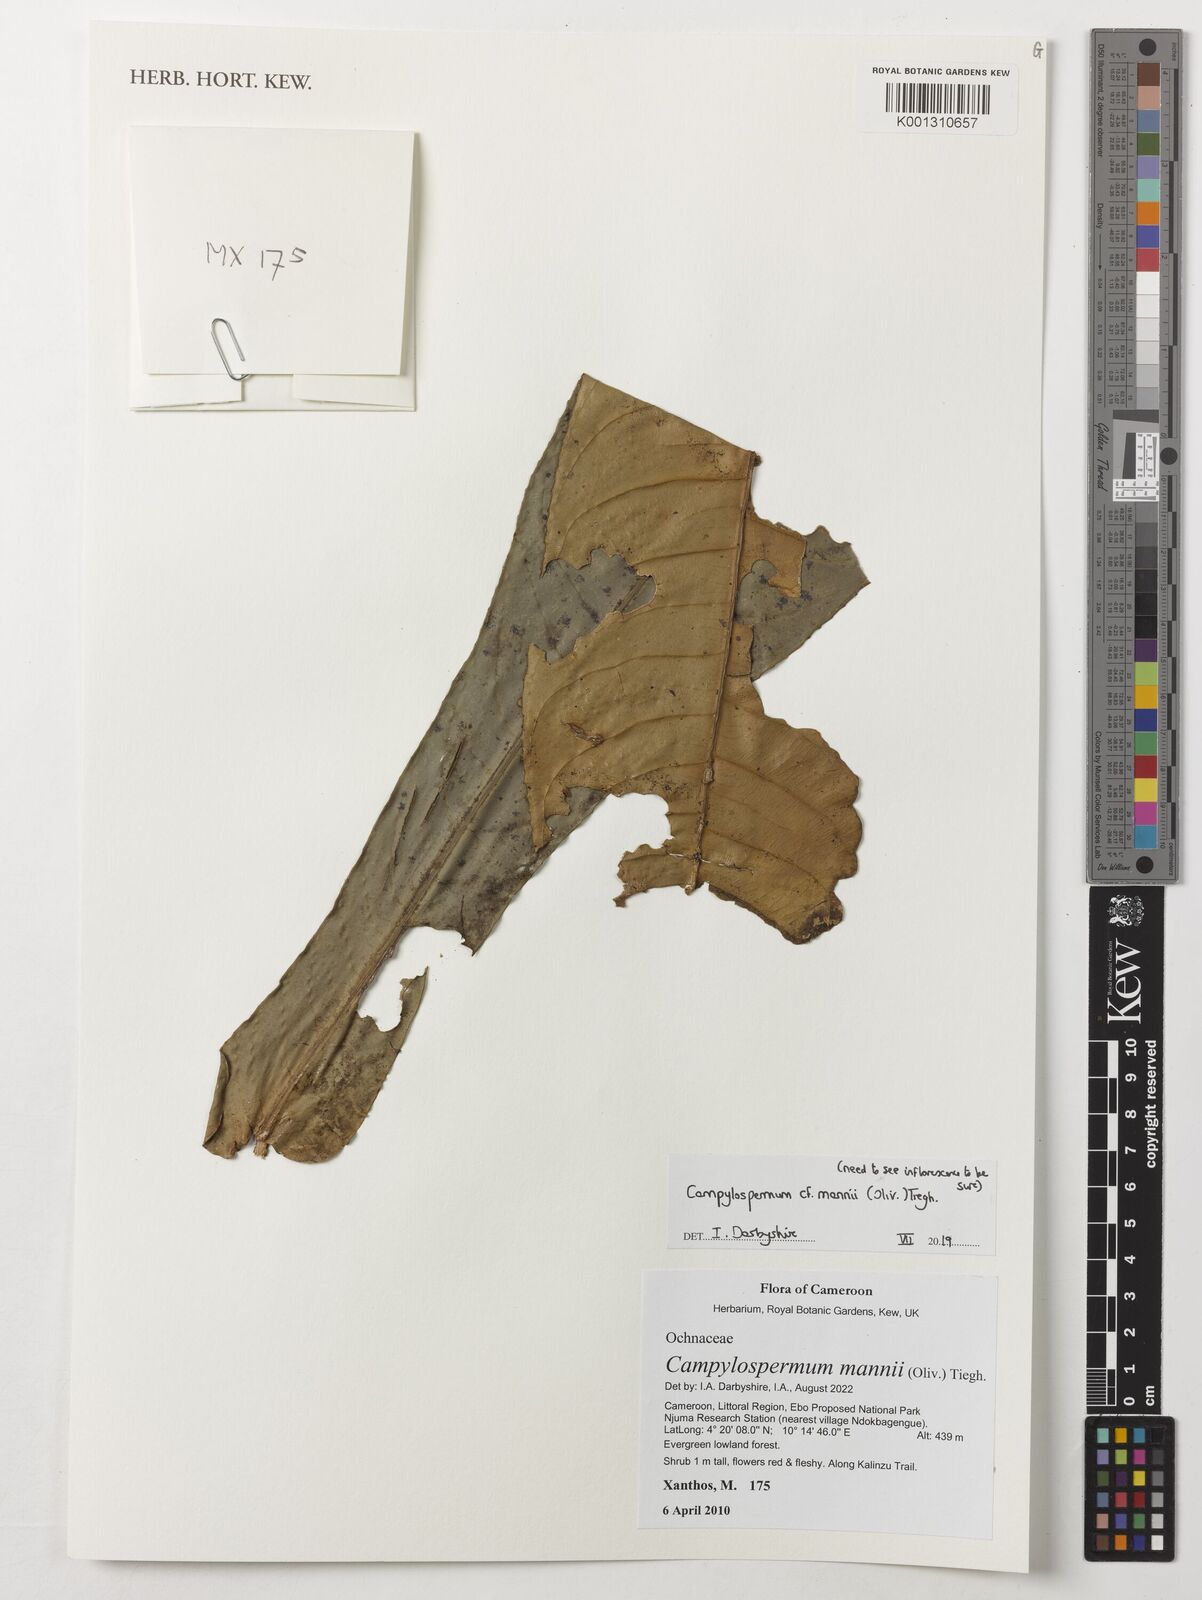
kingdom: Plantae
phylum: Tracheophyta
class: Magnoliopsida
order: Malpighiales
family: Ochnaceae
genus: Campylospermum
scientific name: Campylospermum mannii
